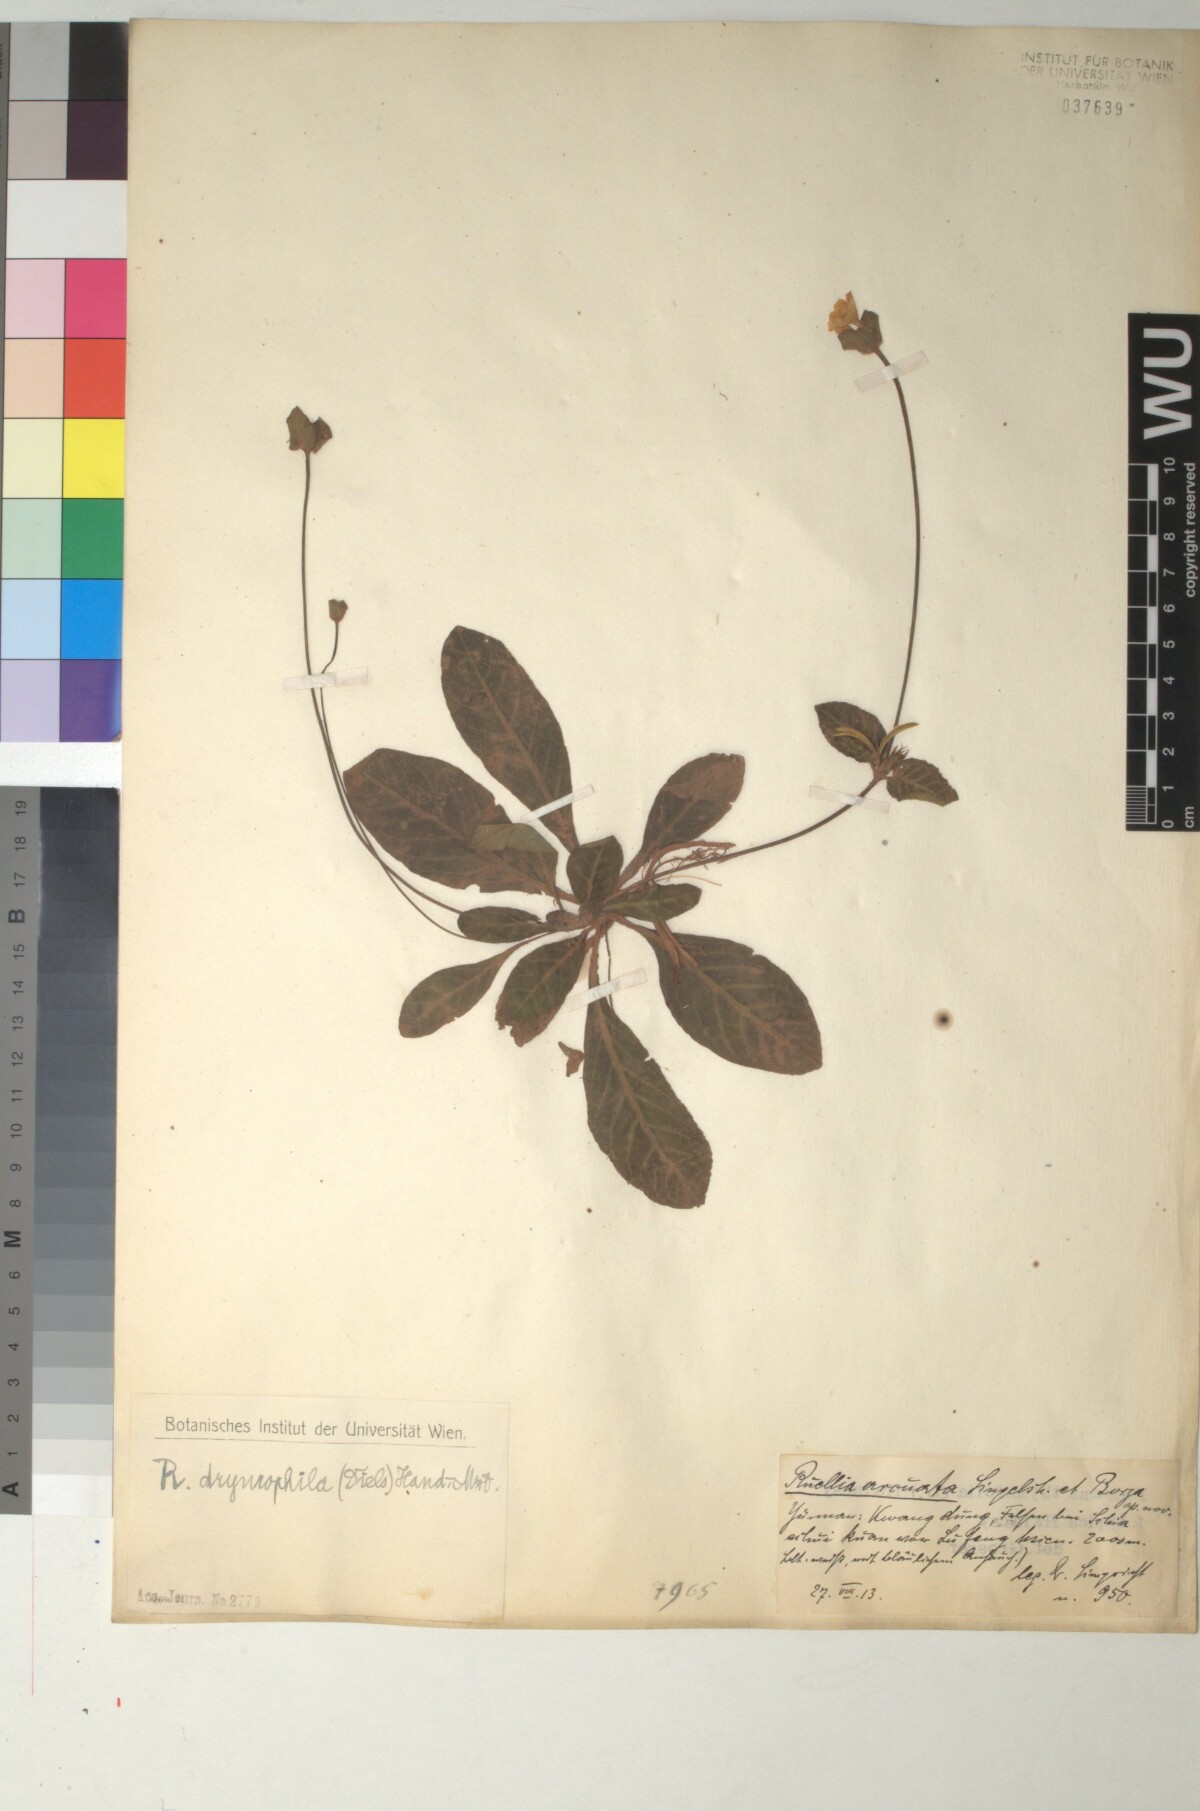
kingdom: Plantae
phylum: Tracheophyta
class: Magnoliopsida
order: Lamiales
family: Acanthaceae
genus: Pararuellia
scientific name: Pararuellia
